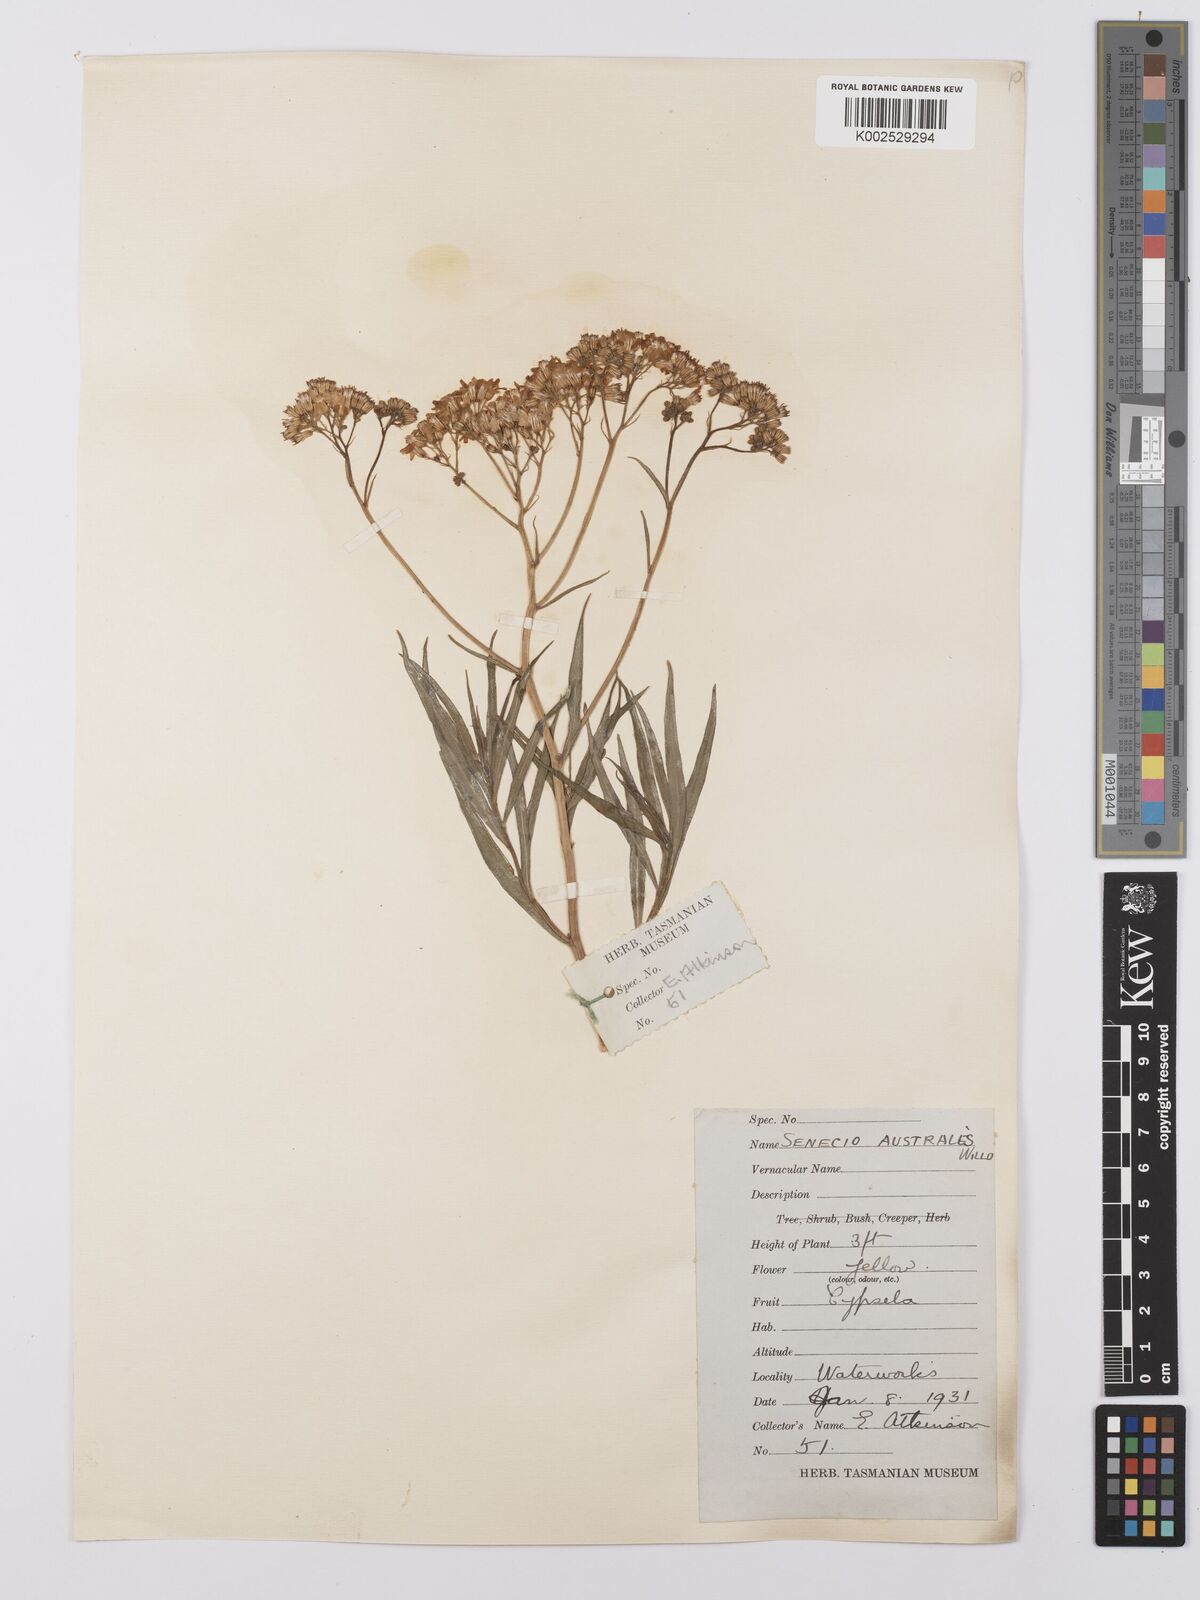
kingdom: Plantae
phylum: Tracheophyta
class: Magnoliopsida
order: Asterales
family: Asteraceae
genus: Senecio
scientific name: Senecio
